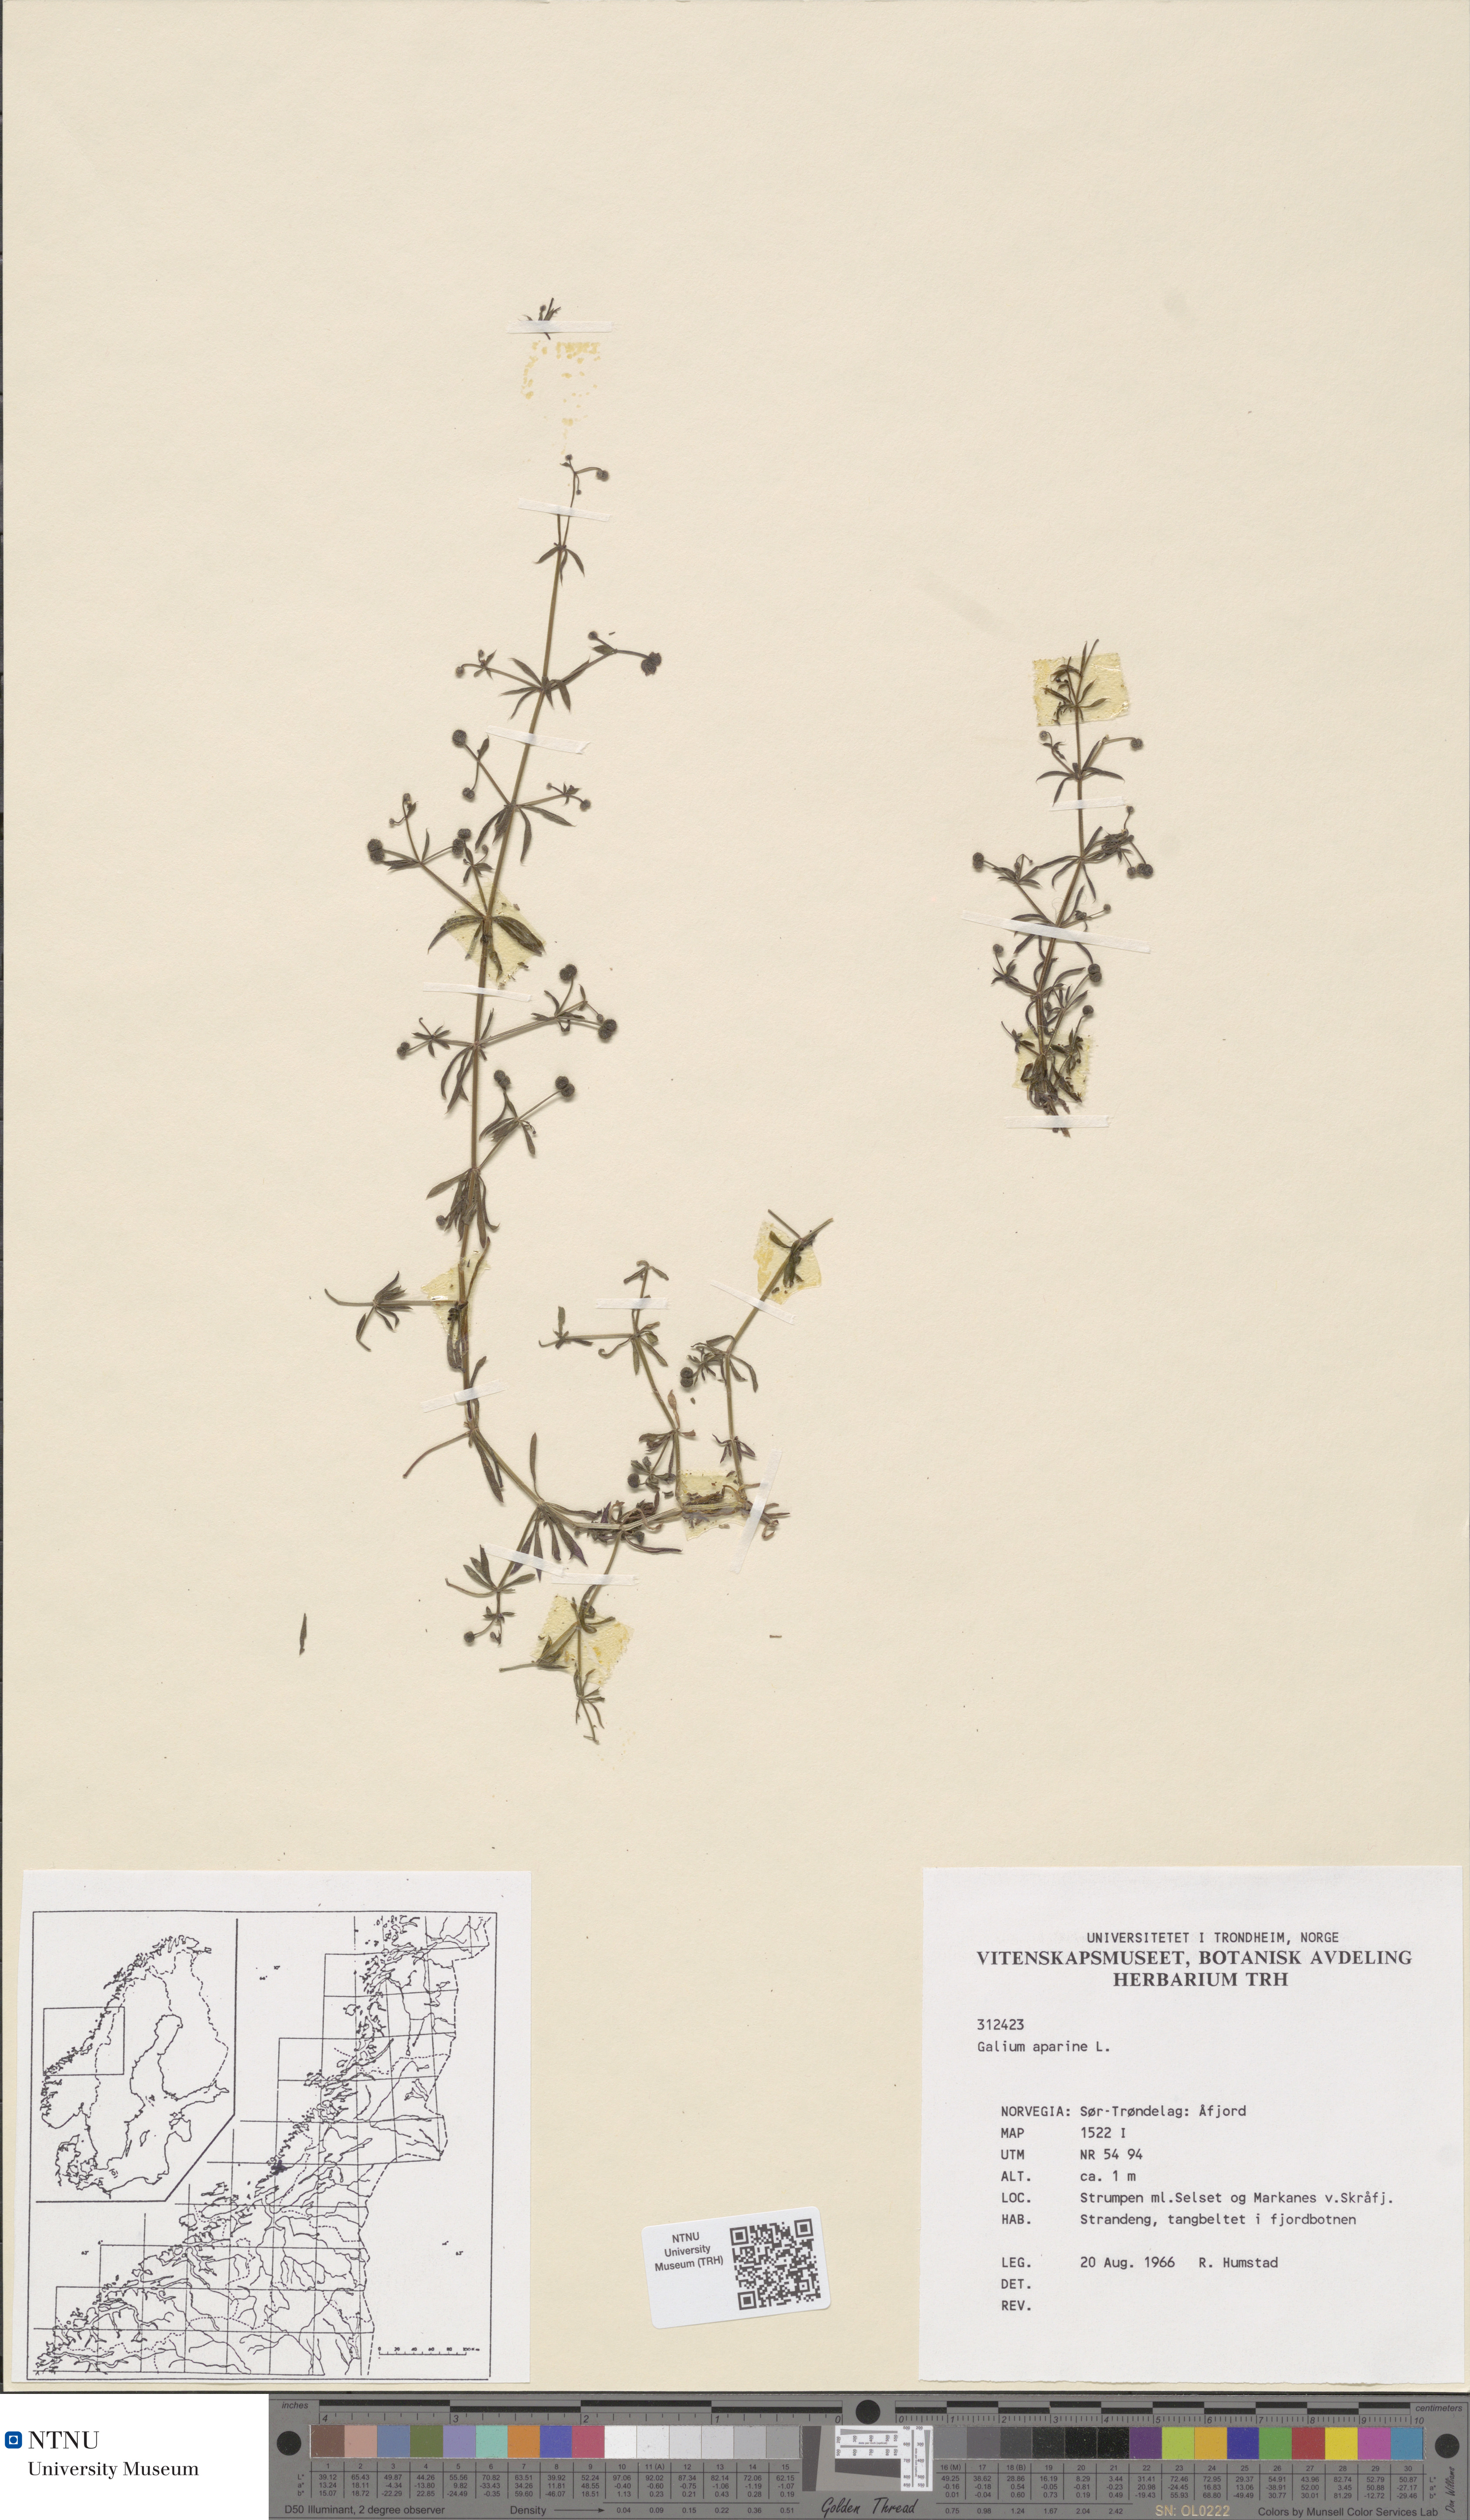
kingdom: Plantae
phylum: Tracheophyta
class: Magnoliopsida
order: Gentianales
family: Rubiaceae
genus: Galium
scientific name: Galium aparine
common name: Cleavers
